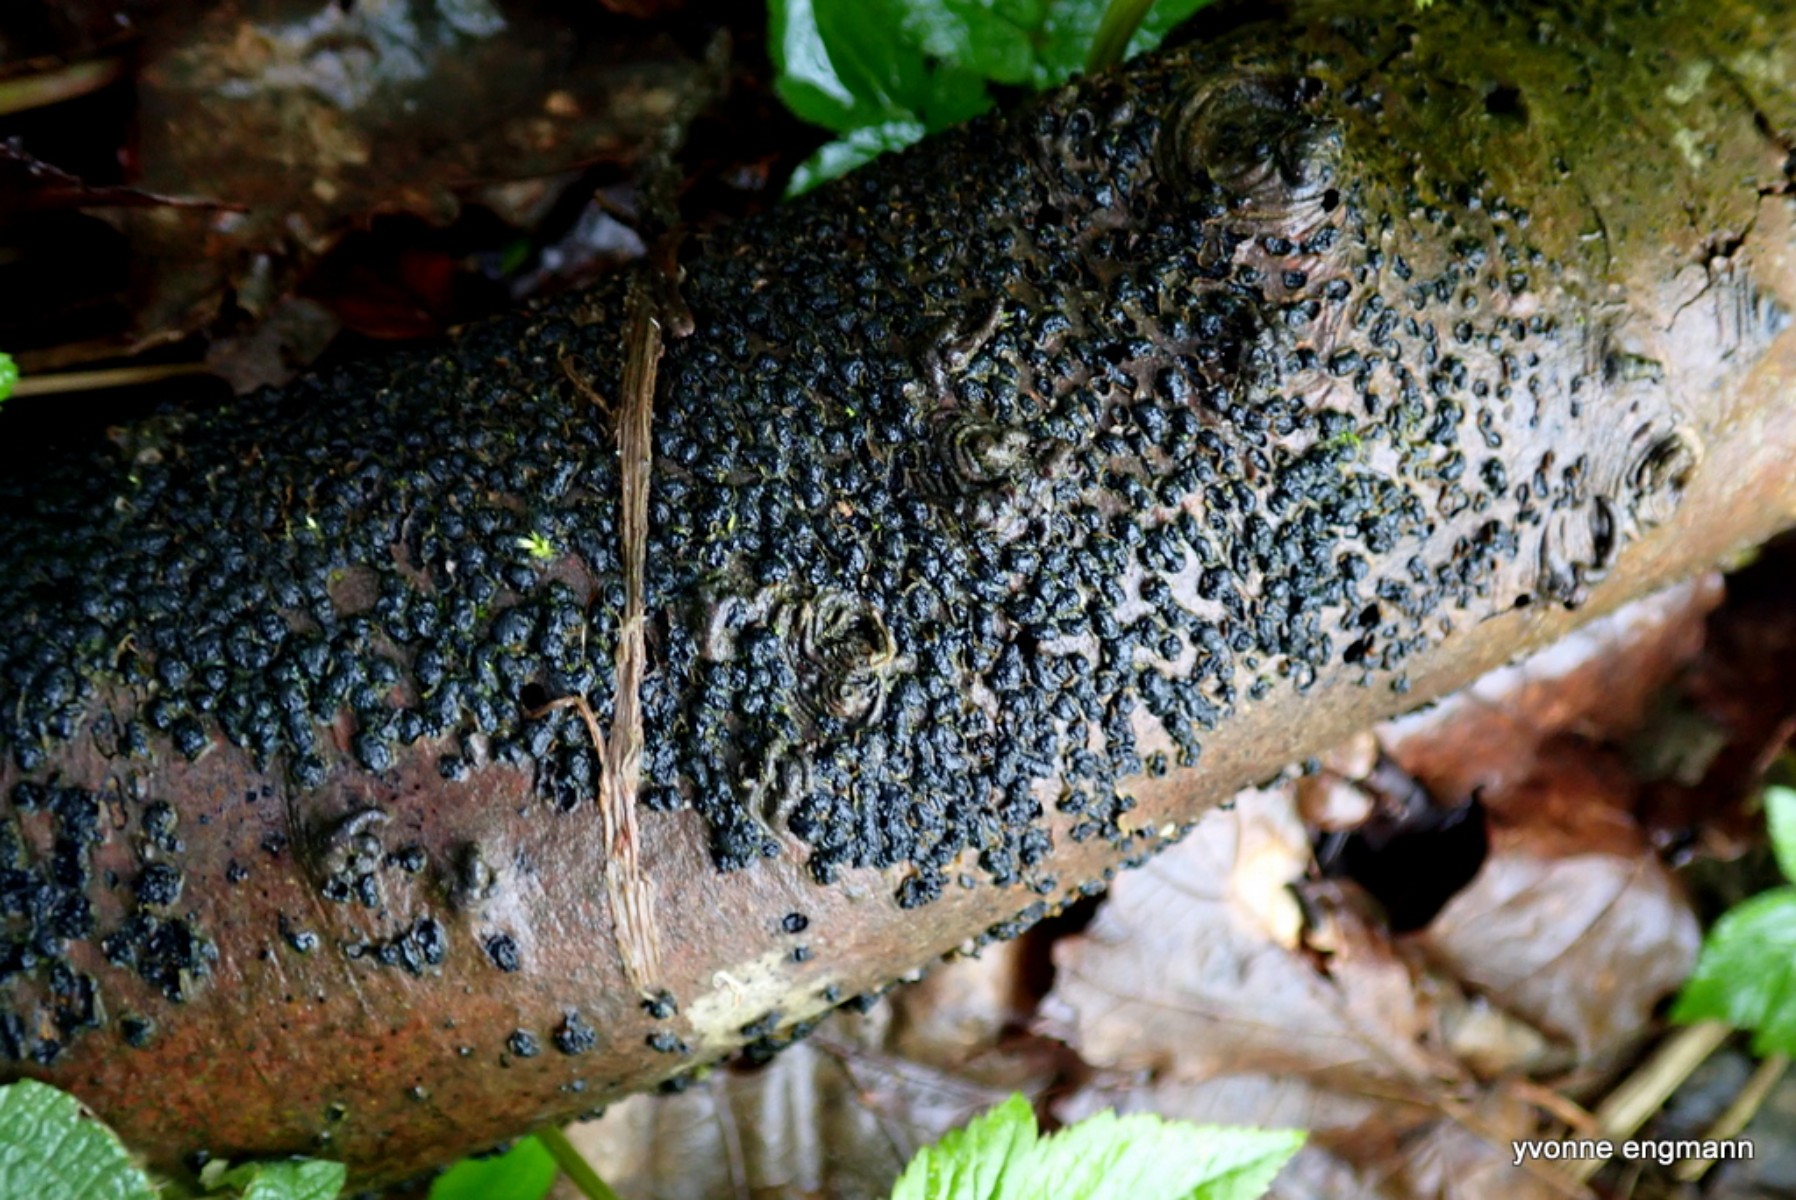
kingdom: Fungi
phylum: Ascomycota
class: Sordariomycetes
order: Xylariales
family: Melogrammataceae
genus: Melogramma
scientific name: Melogramma spiniferum
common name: bøgefod-kulhals
